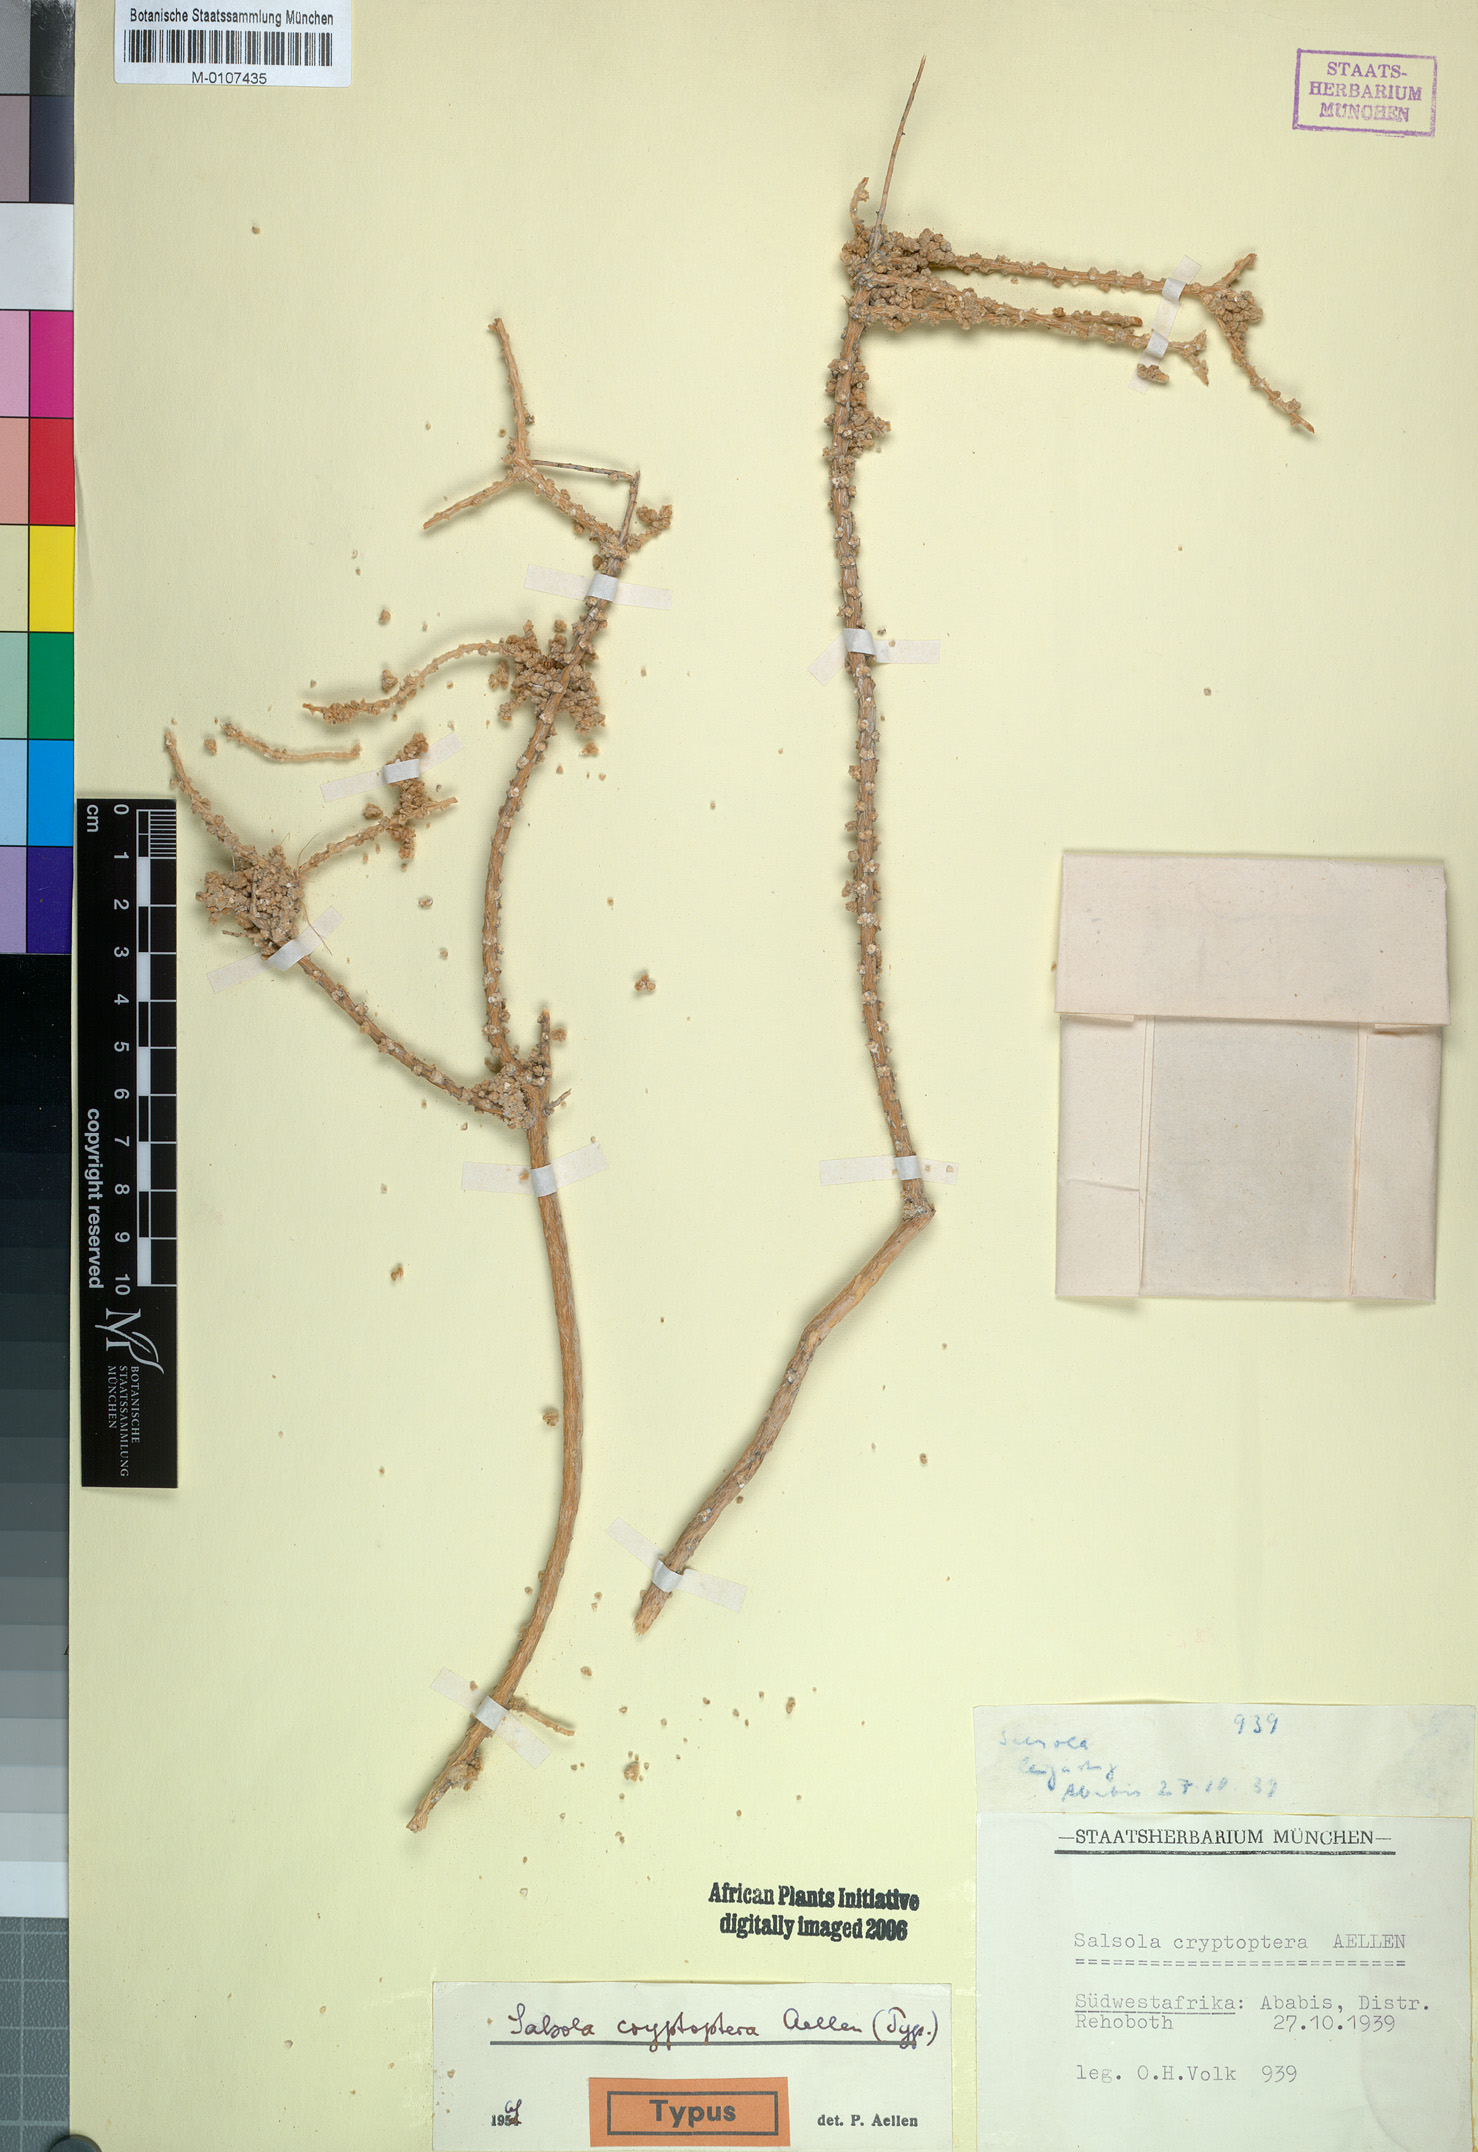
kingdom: Plantae
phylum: Tracheophyta
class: Magnoliopsida
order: Caryophyllales
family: Amaranthaceae
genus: Caroxylon
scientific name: Caroxylon cryptopterum
